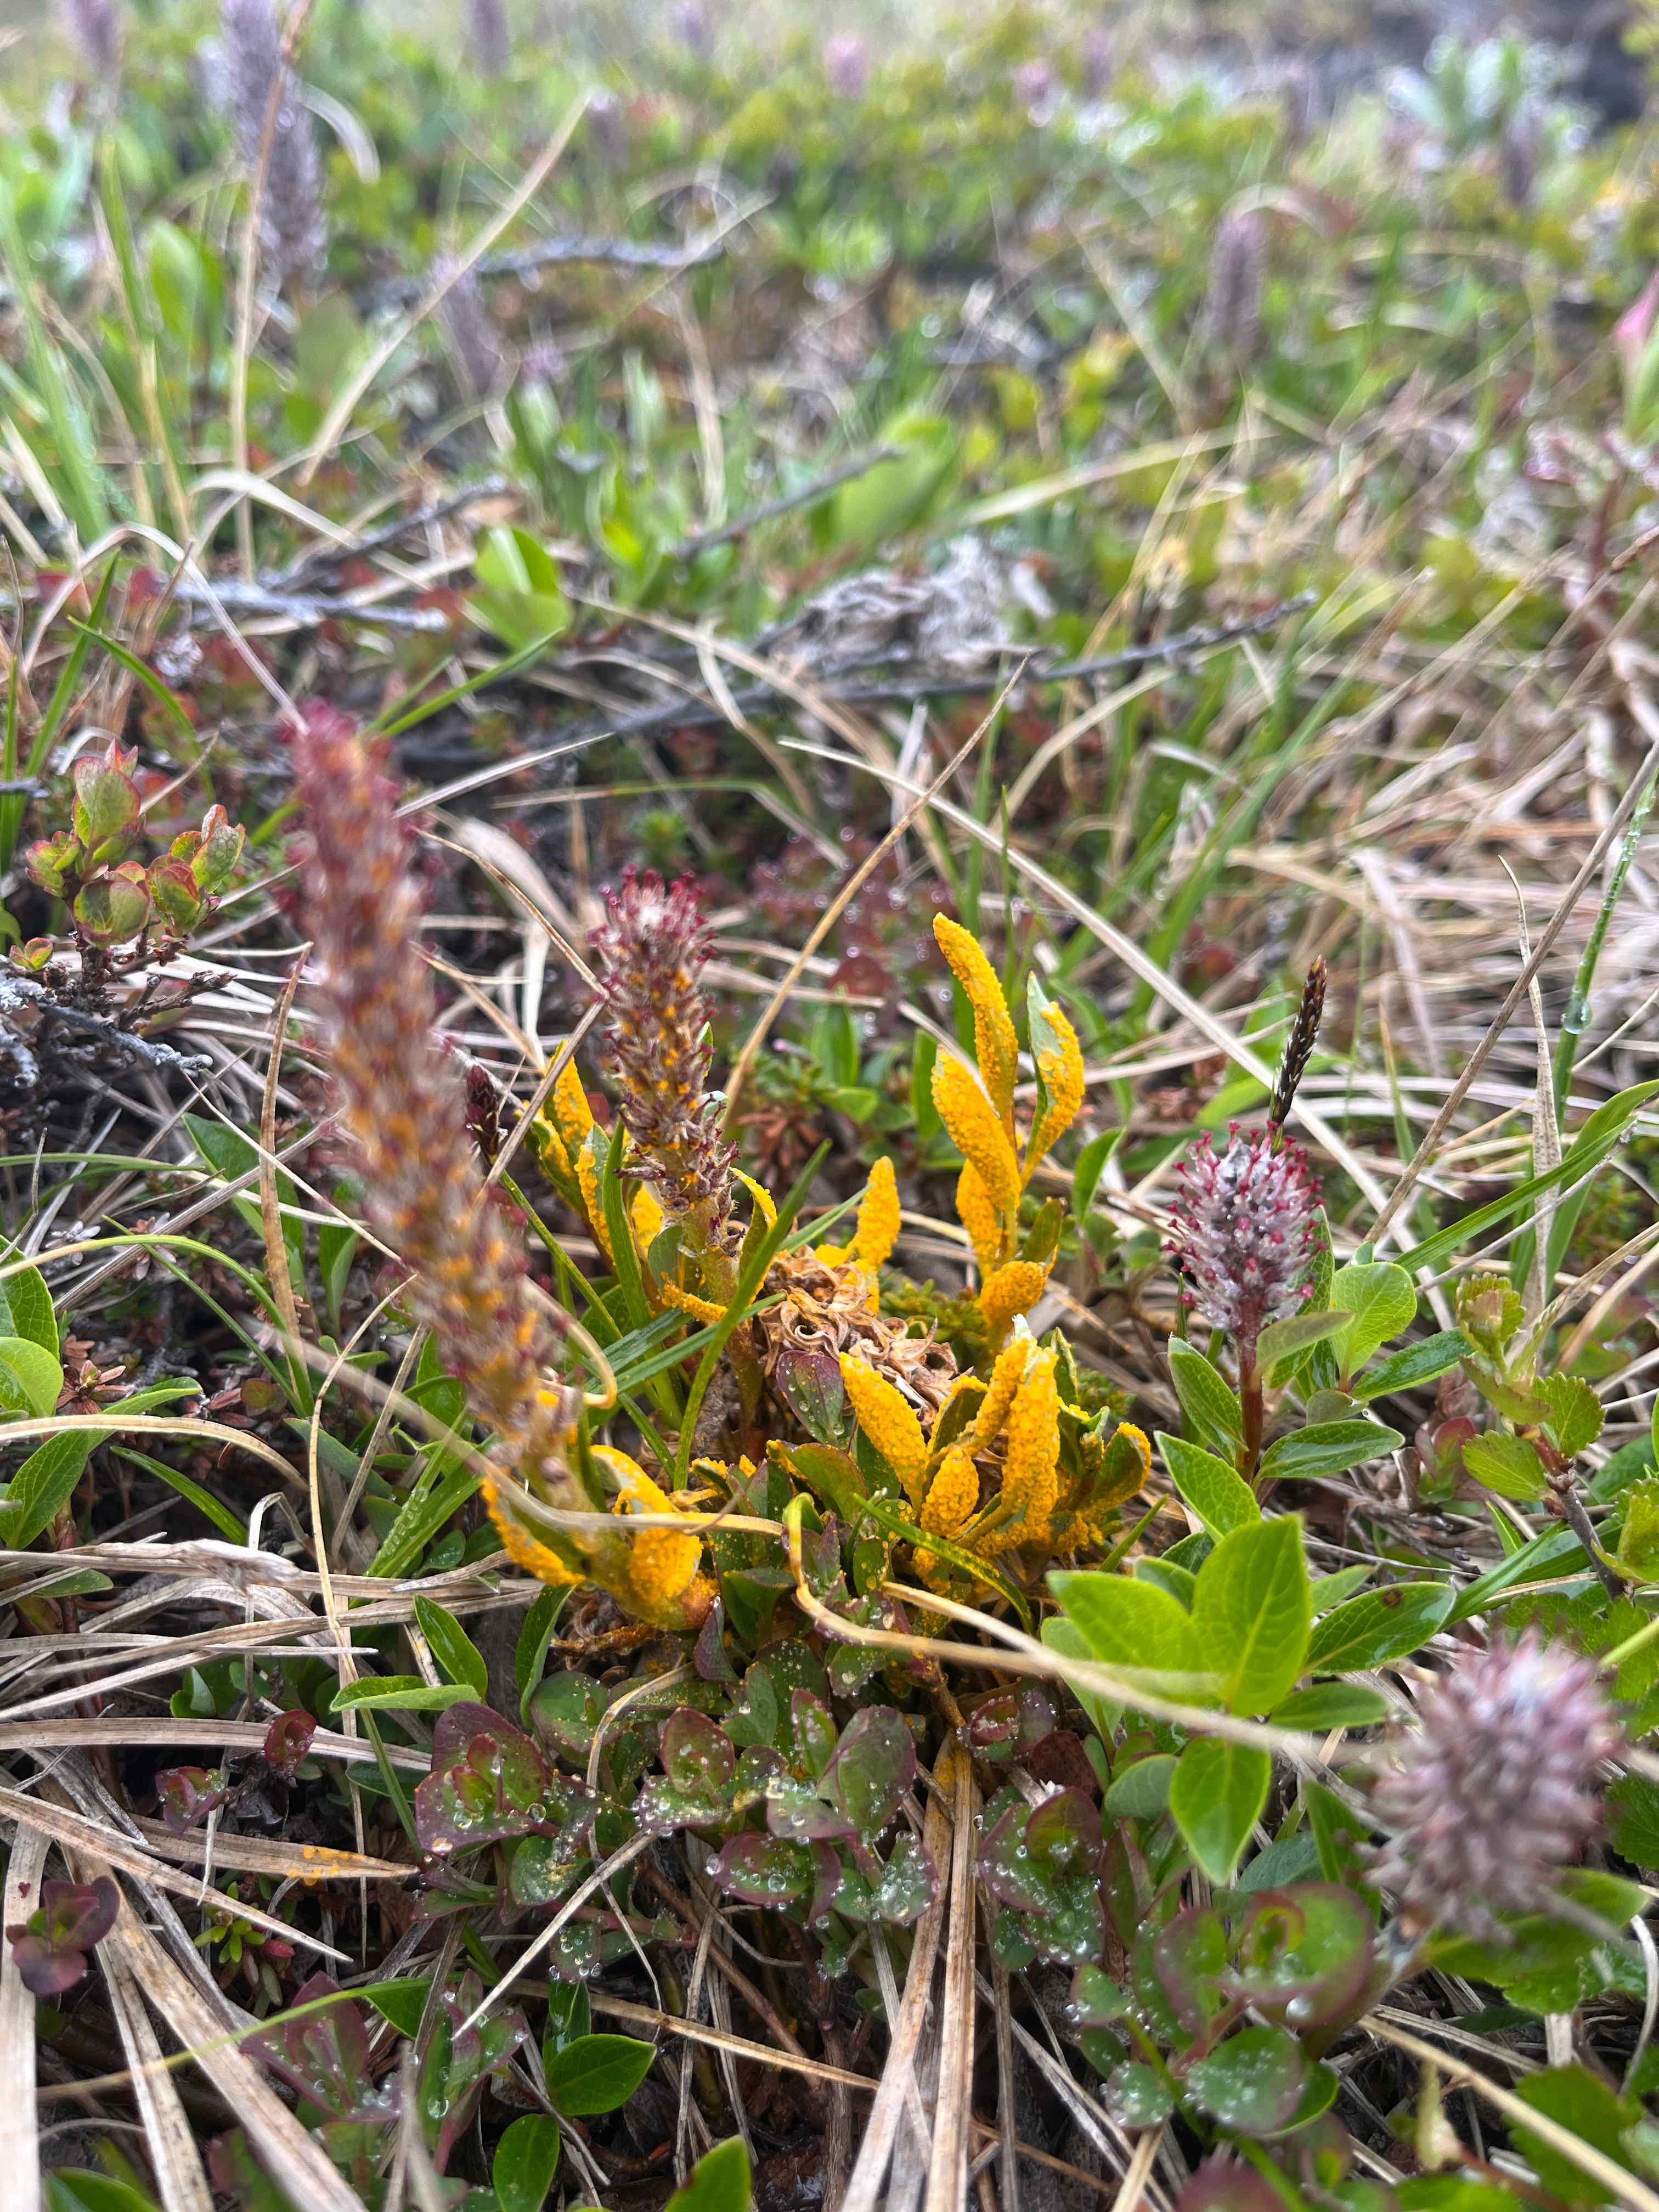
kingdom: Fungi
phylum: Basidiomycota
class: Pucciniomycetes
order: Pucciniales
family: Melampsoraceae
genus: Melampsora
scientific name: Melampsora epitea
